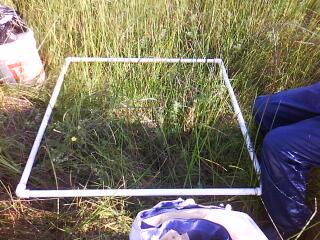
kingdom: Plantae
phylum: Tracheophyta
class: Liliopsida
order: Poales
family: Juncaceae
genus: Juncus
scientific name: Juncus brachycephalus
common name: Short-headed rush
